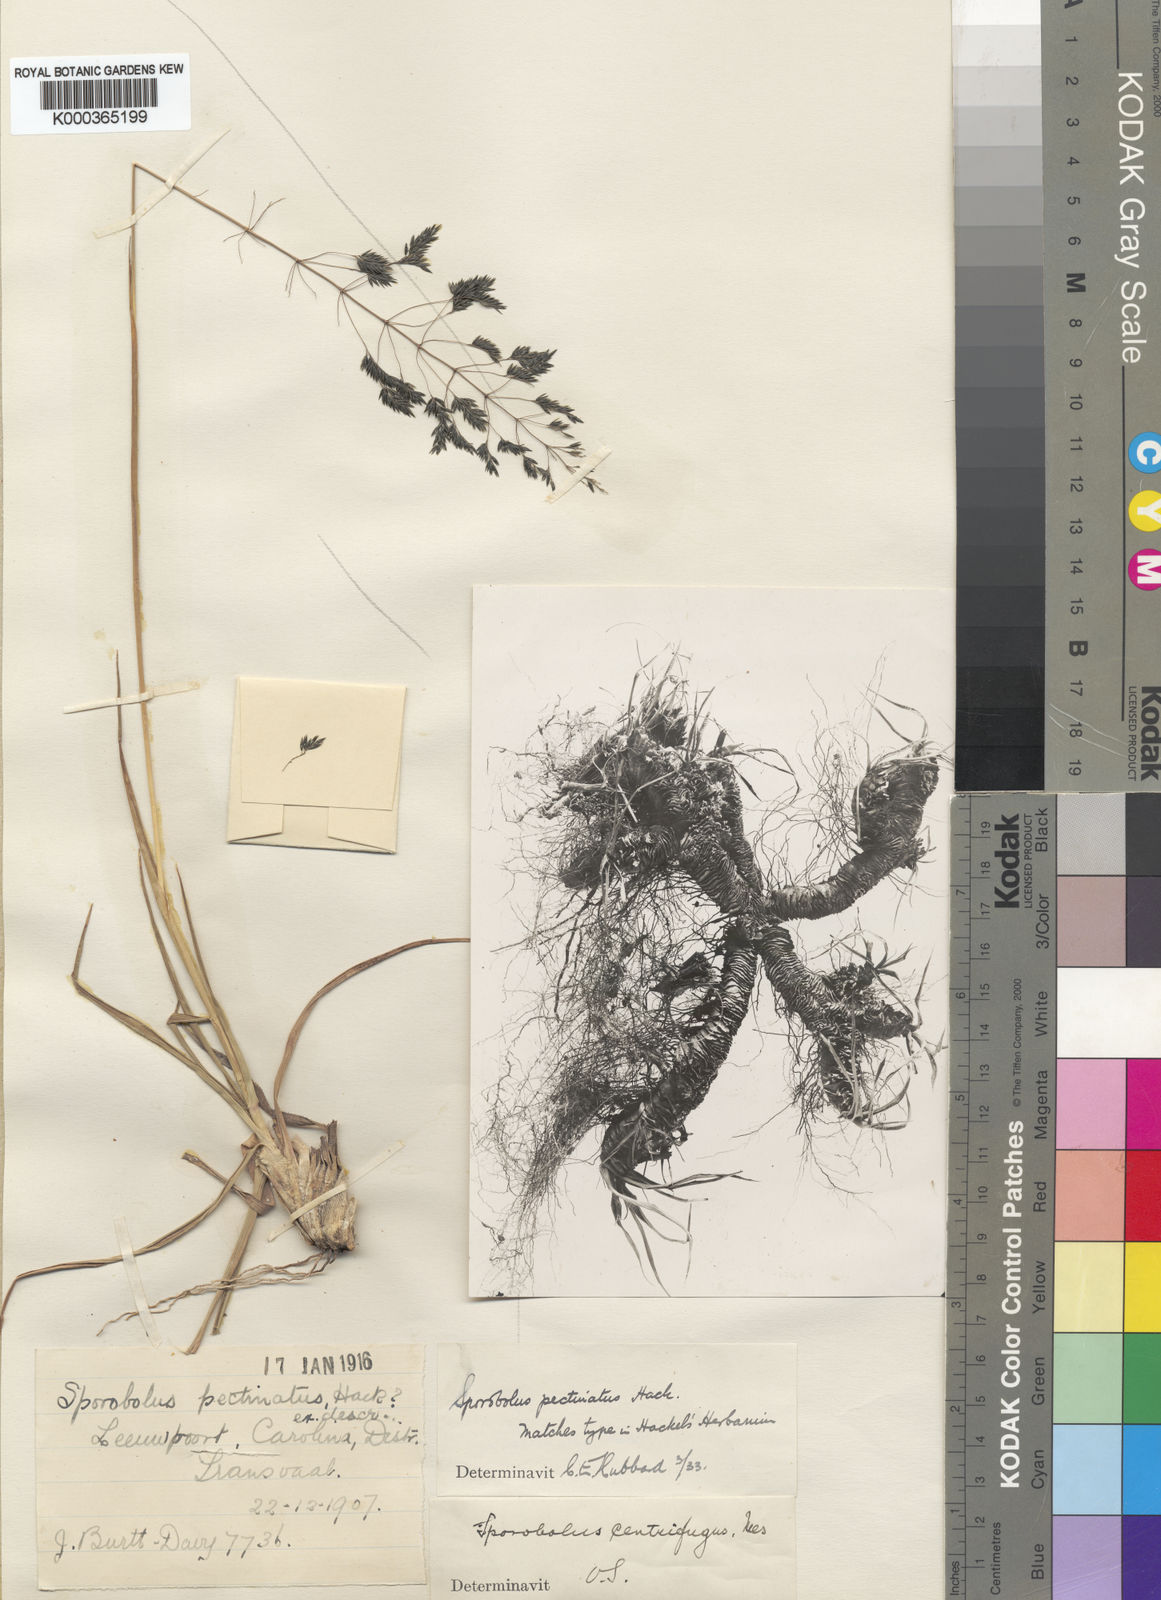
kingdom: Plantae
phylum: Tracheophyta
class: Liliopsida
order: Poales
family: Poaceae
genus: Sporobolus
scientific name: Sporobolus pectinatus
